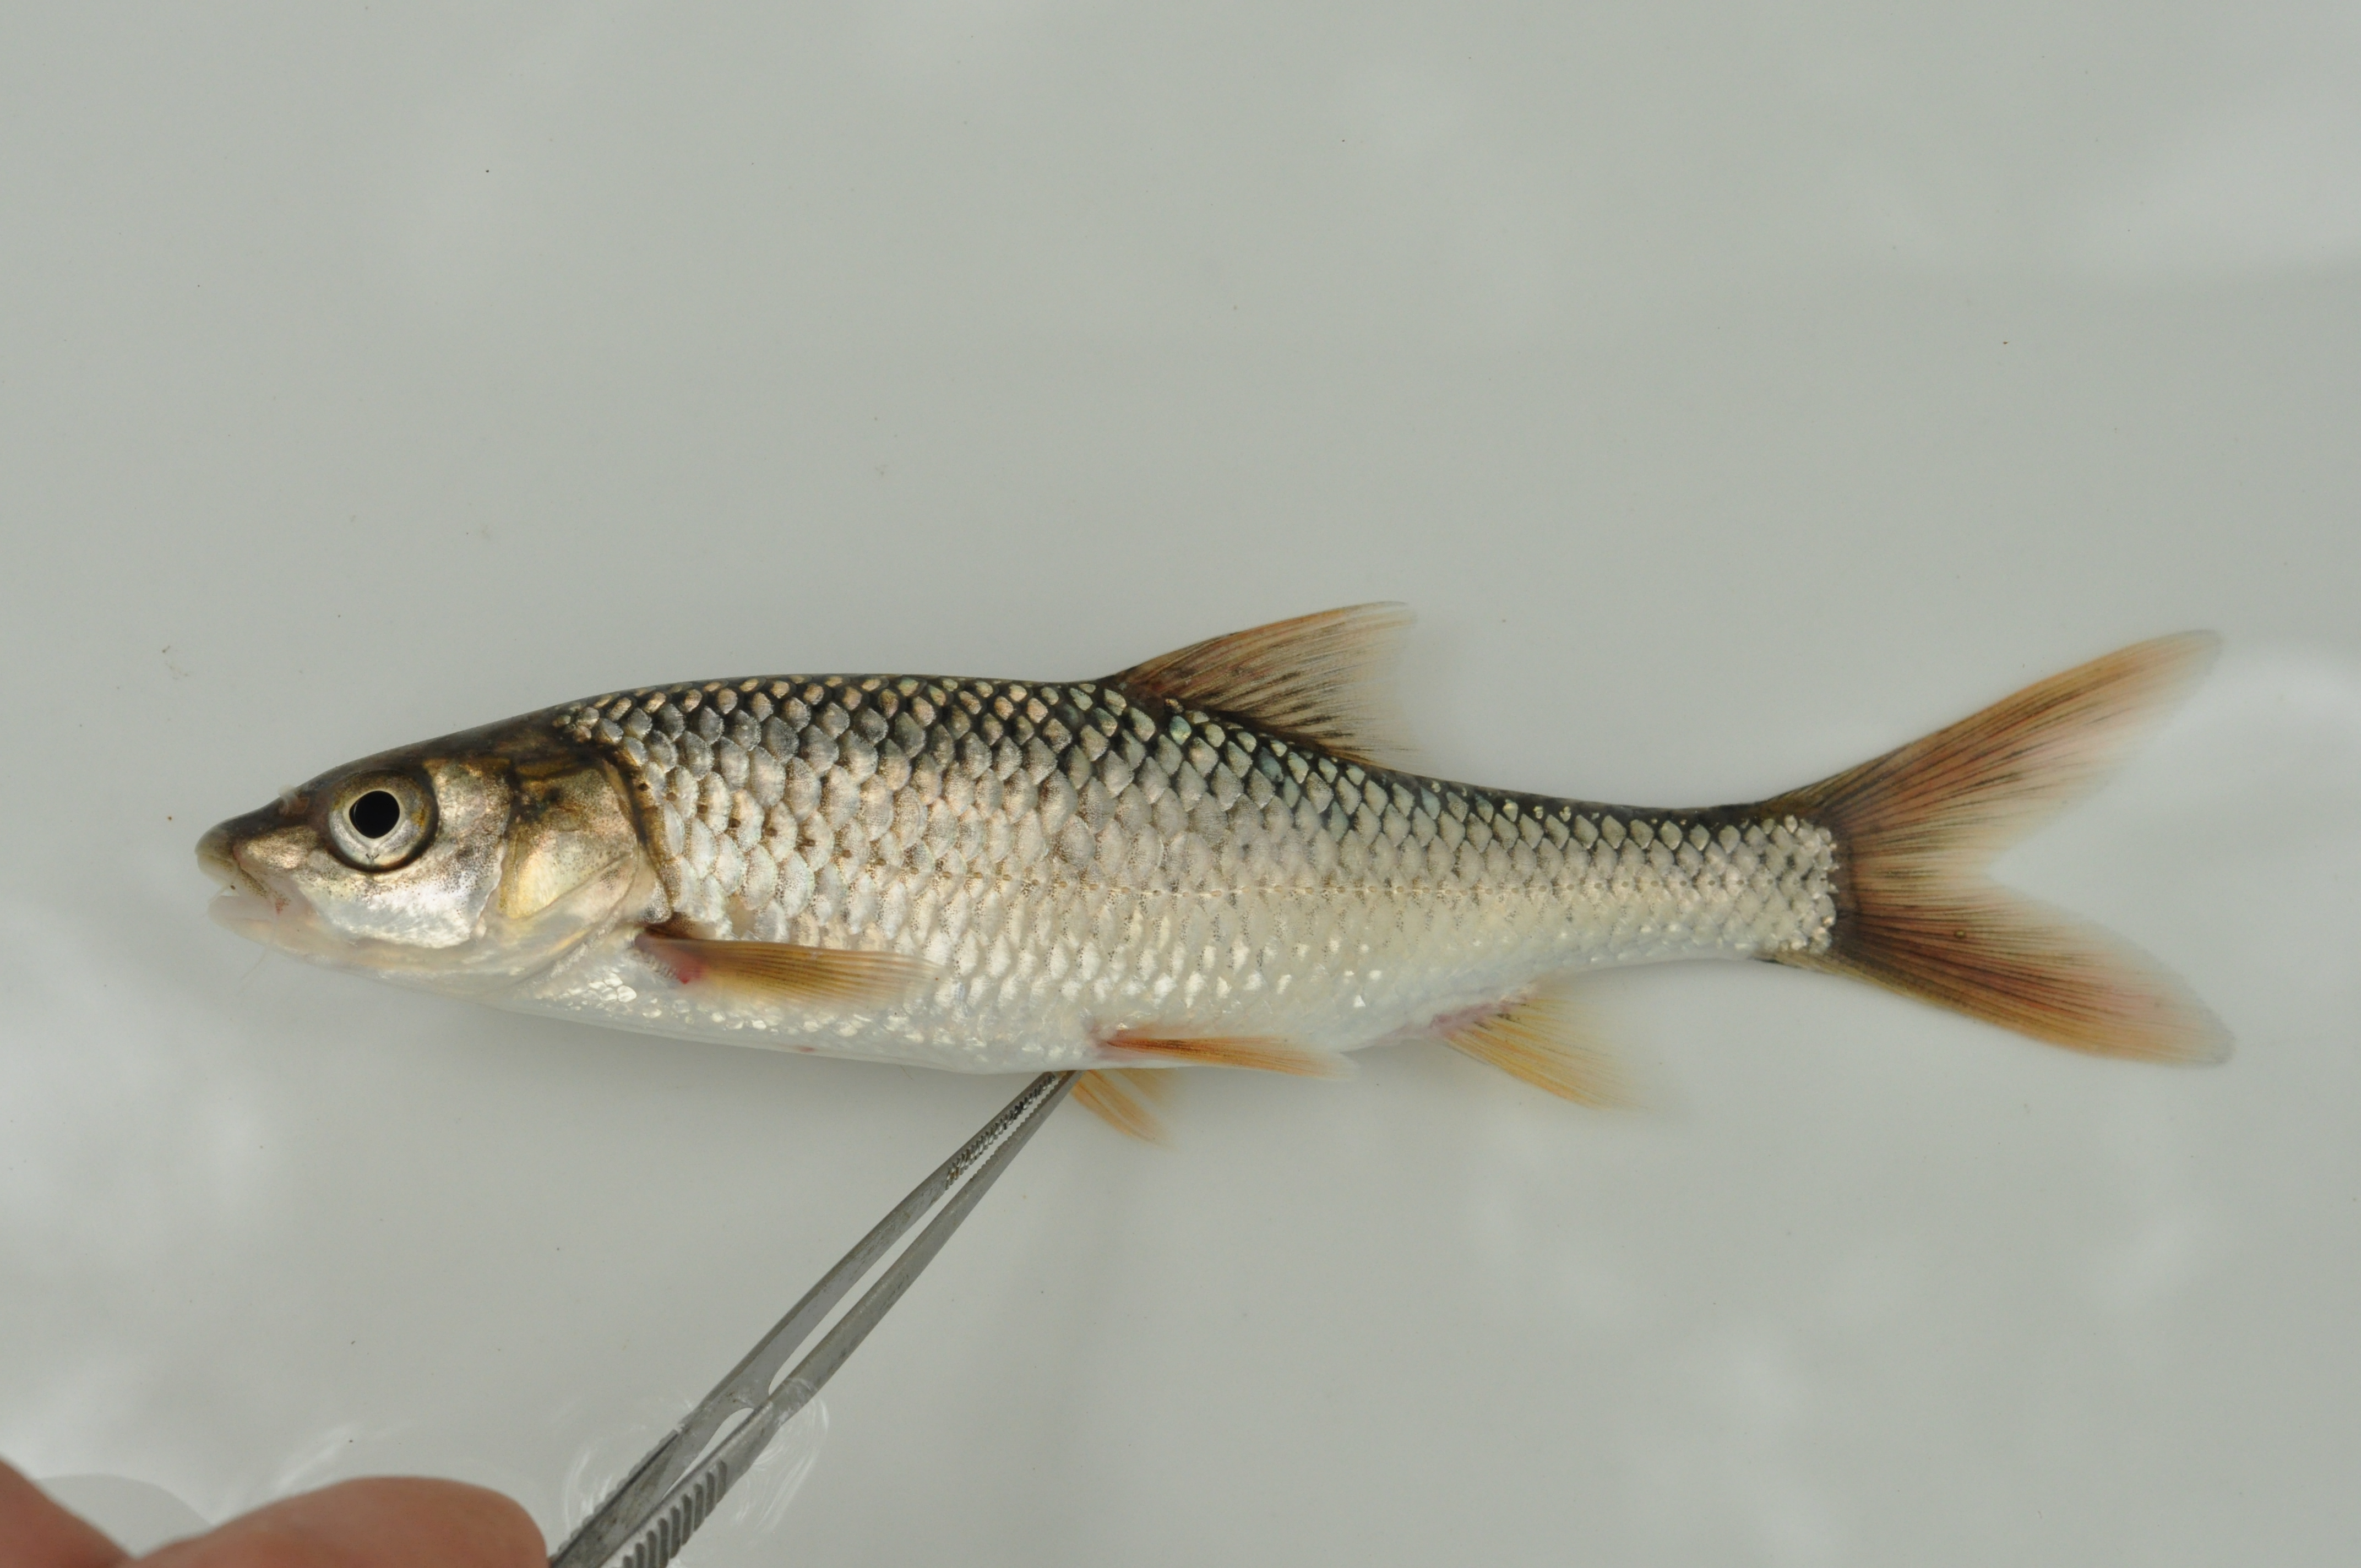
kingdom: Animalia
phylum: Chordata
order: Cypriniformes
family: Cyprinidae
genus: Labeobarbus
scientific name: Labeobarbus aeneus
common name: Smallmouth yellowfish
